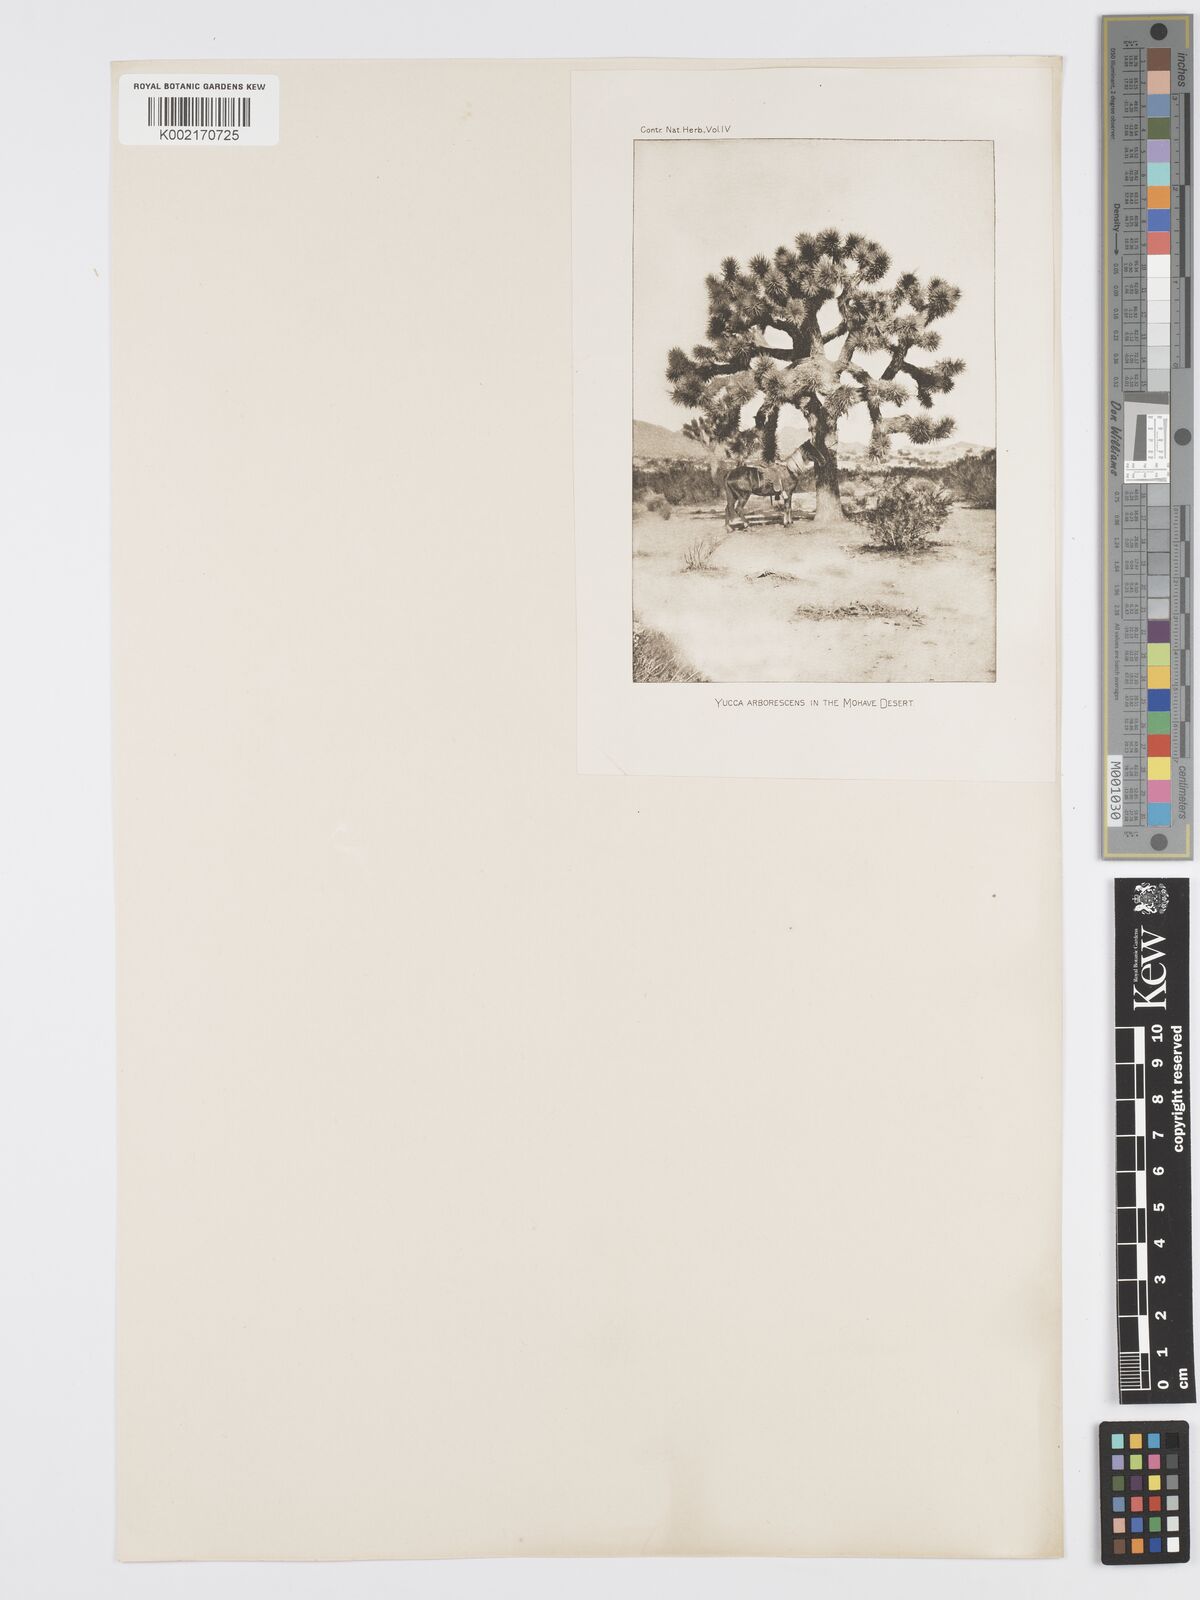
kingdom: Plantae
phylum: Tracheophyta
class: Liliopsida
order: Asparagales
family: Asparagaceae
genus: Yucca
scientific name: Yucca brevifolia
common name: Joshua tree
